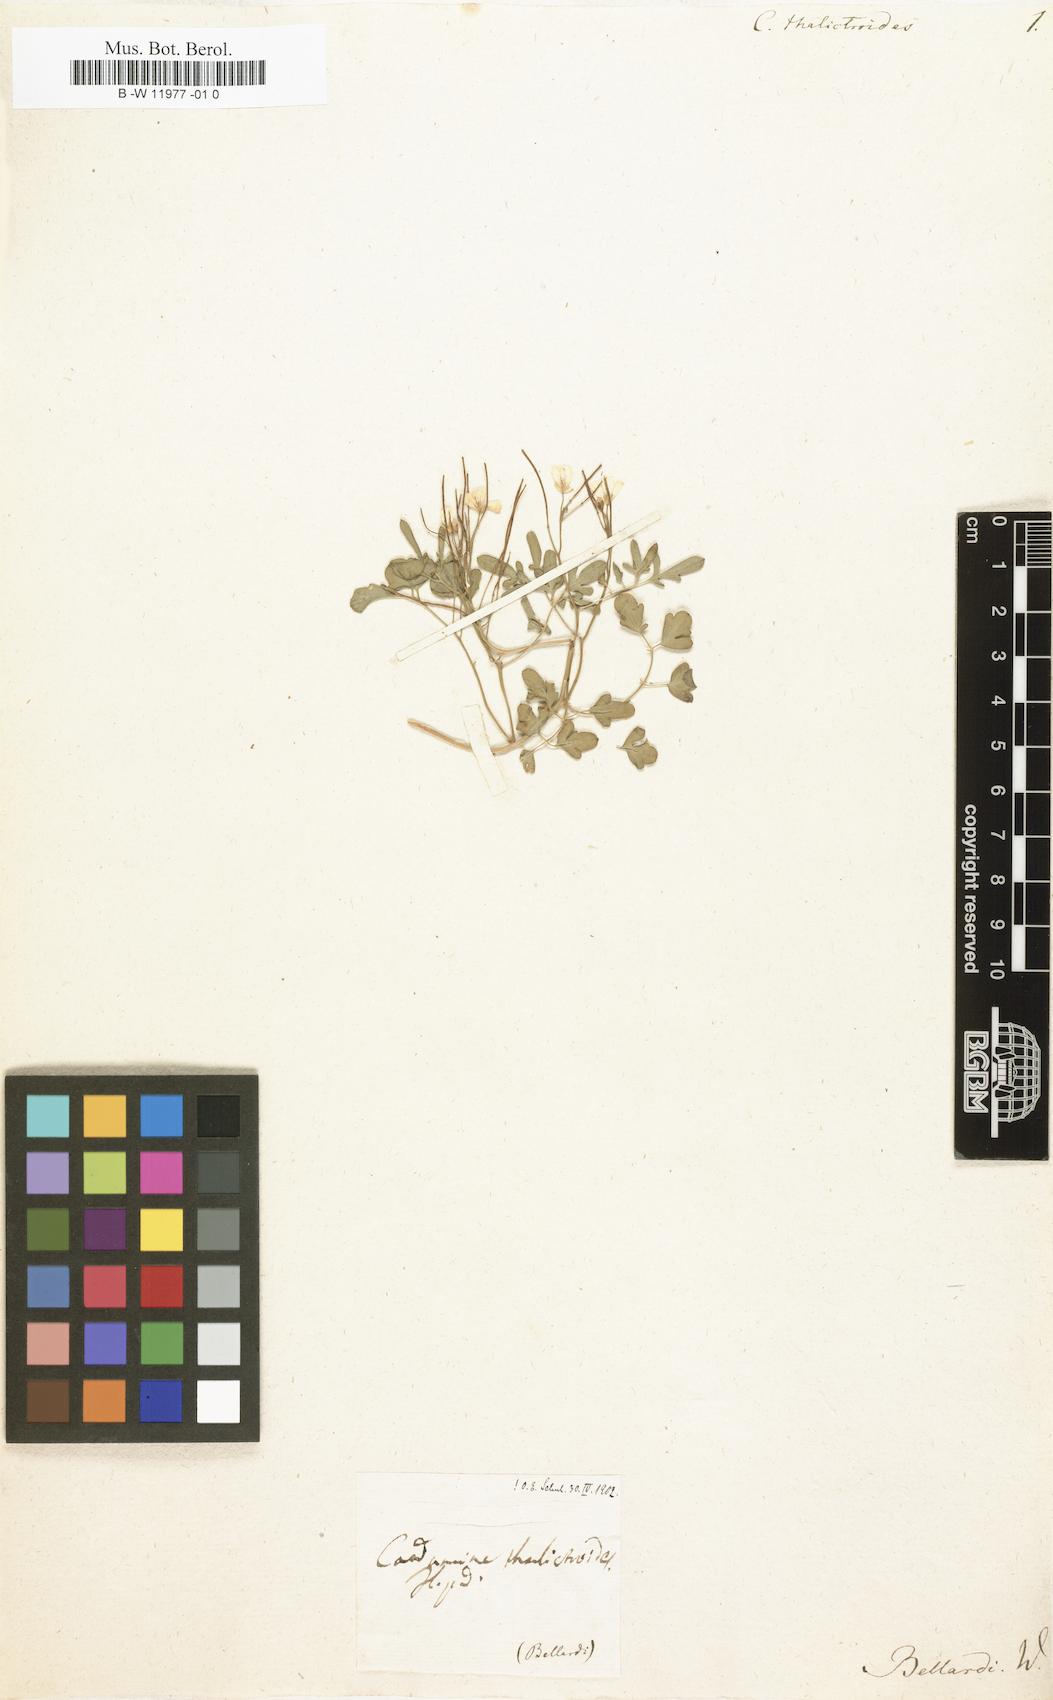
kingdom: Plantae
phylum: Tracheophyta
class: Magnoliopsida
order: Brassicales
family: Brassicaceae
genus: Cardamine
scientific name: Cardamine maritima
